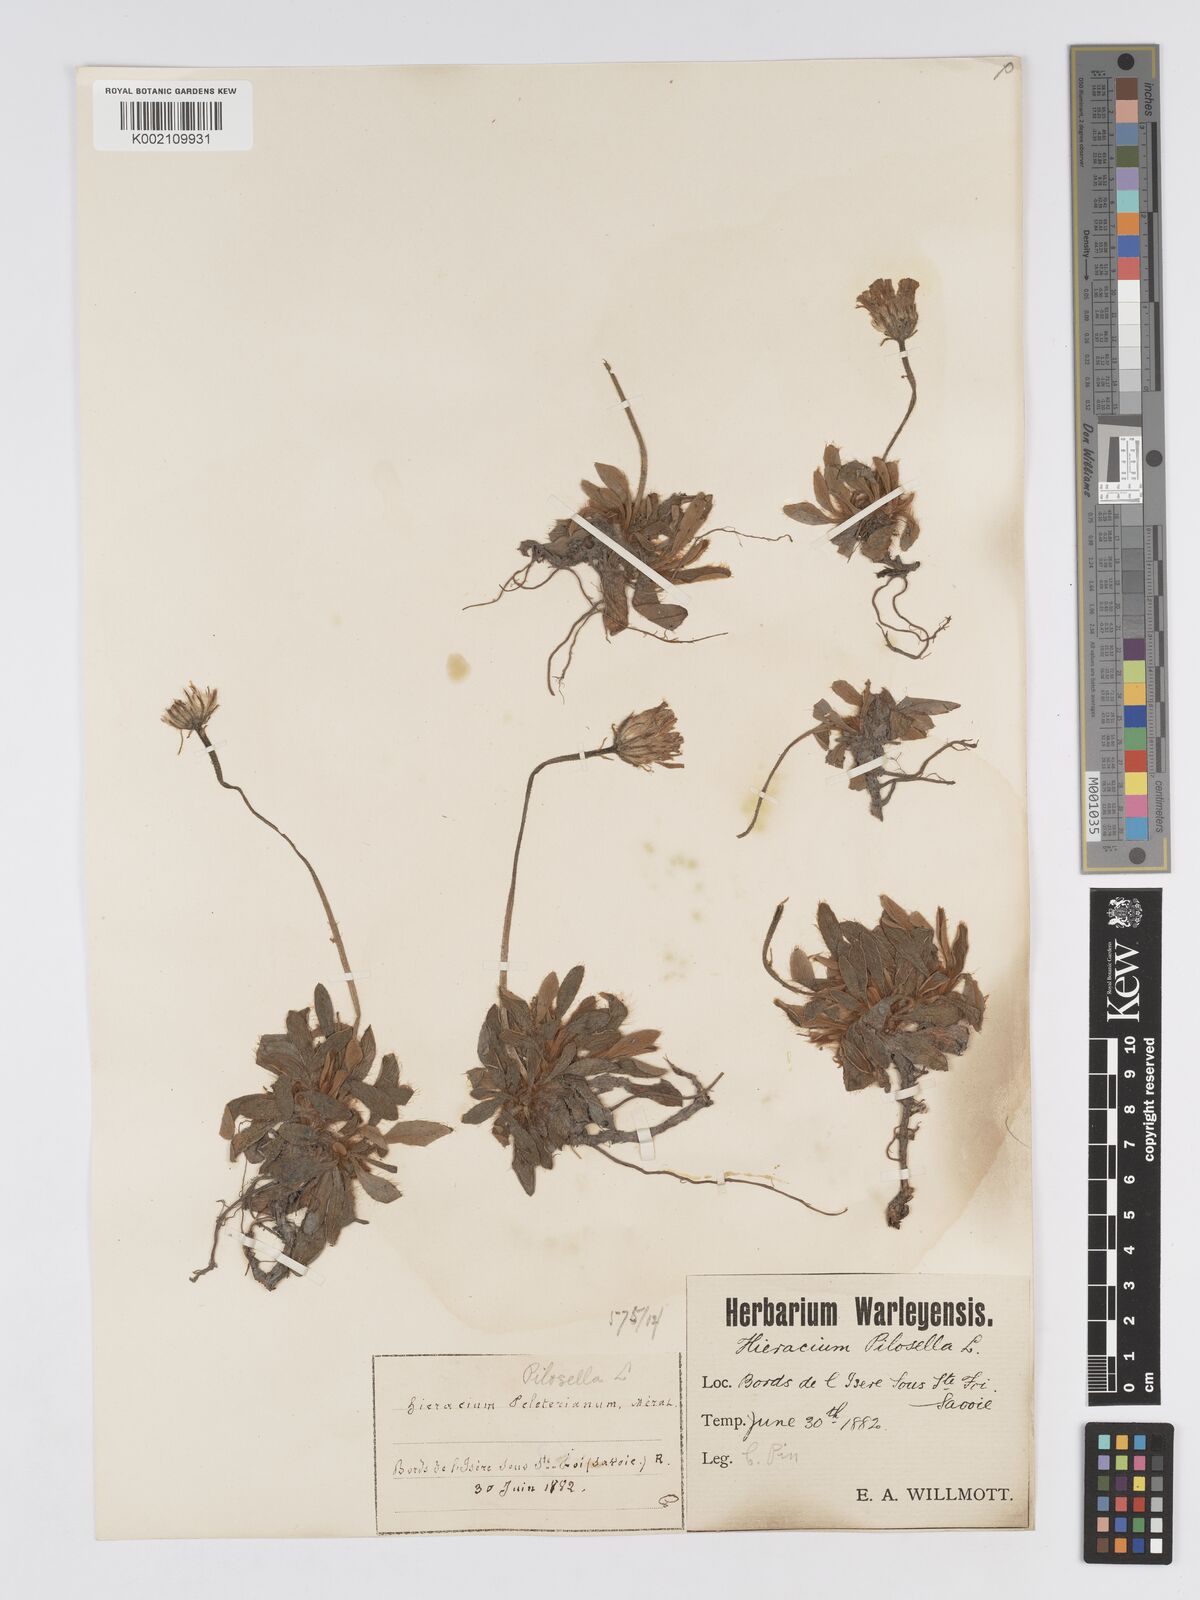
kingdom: Plantae
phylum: Tracheophyta
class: Magnoliopsida
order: Asterales
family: Asteraceae
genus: Pilosella
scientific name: Pilosella hoppeana
